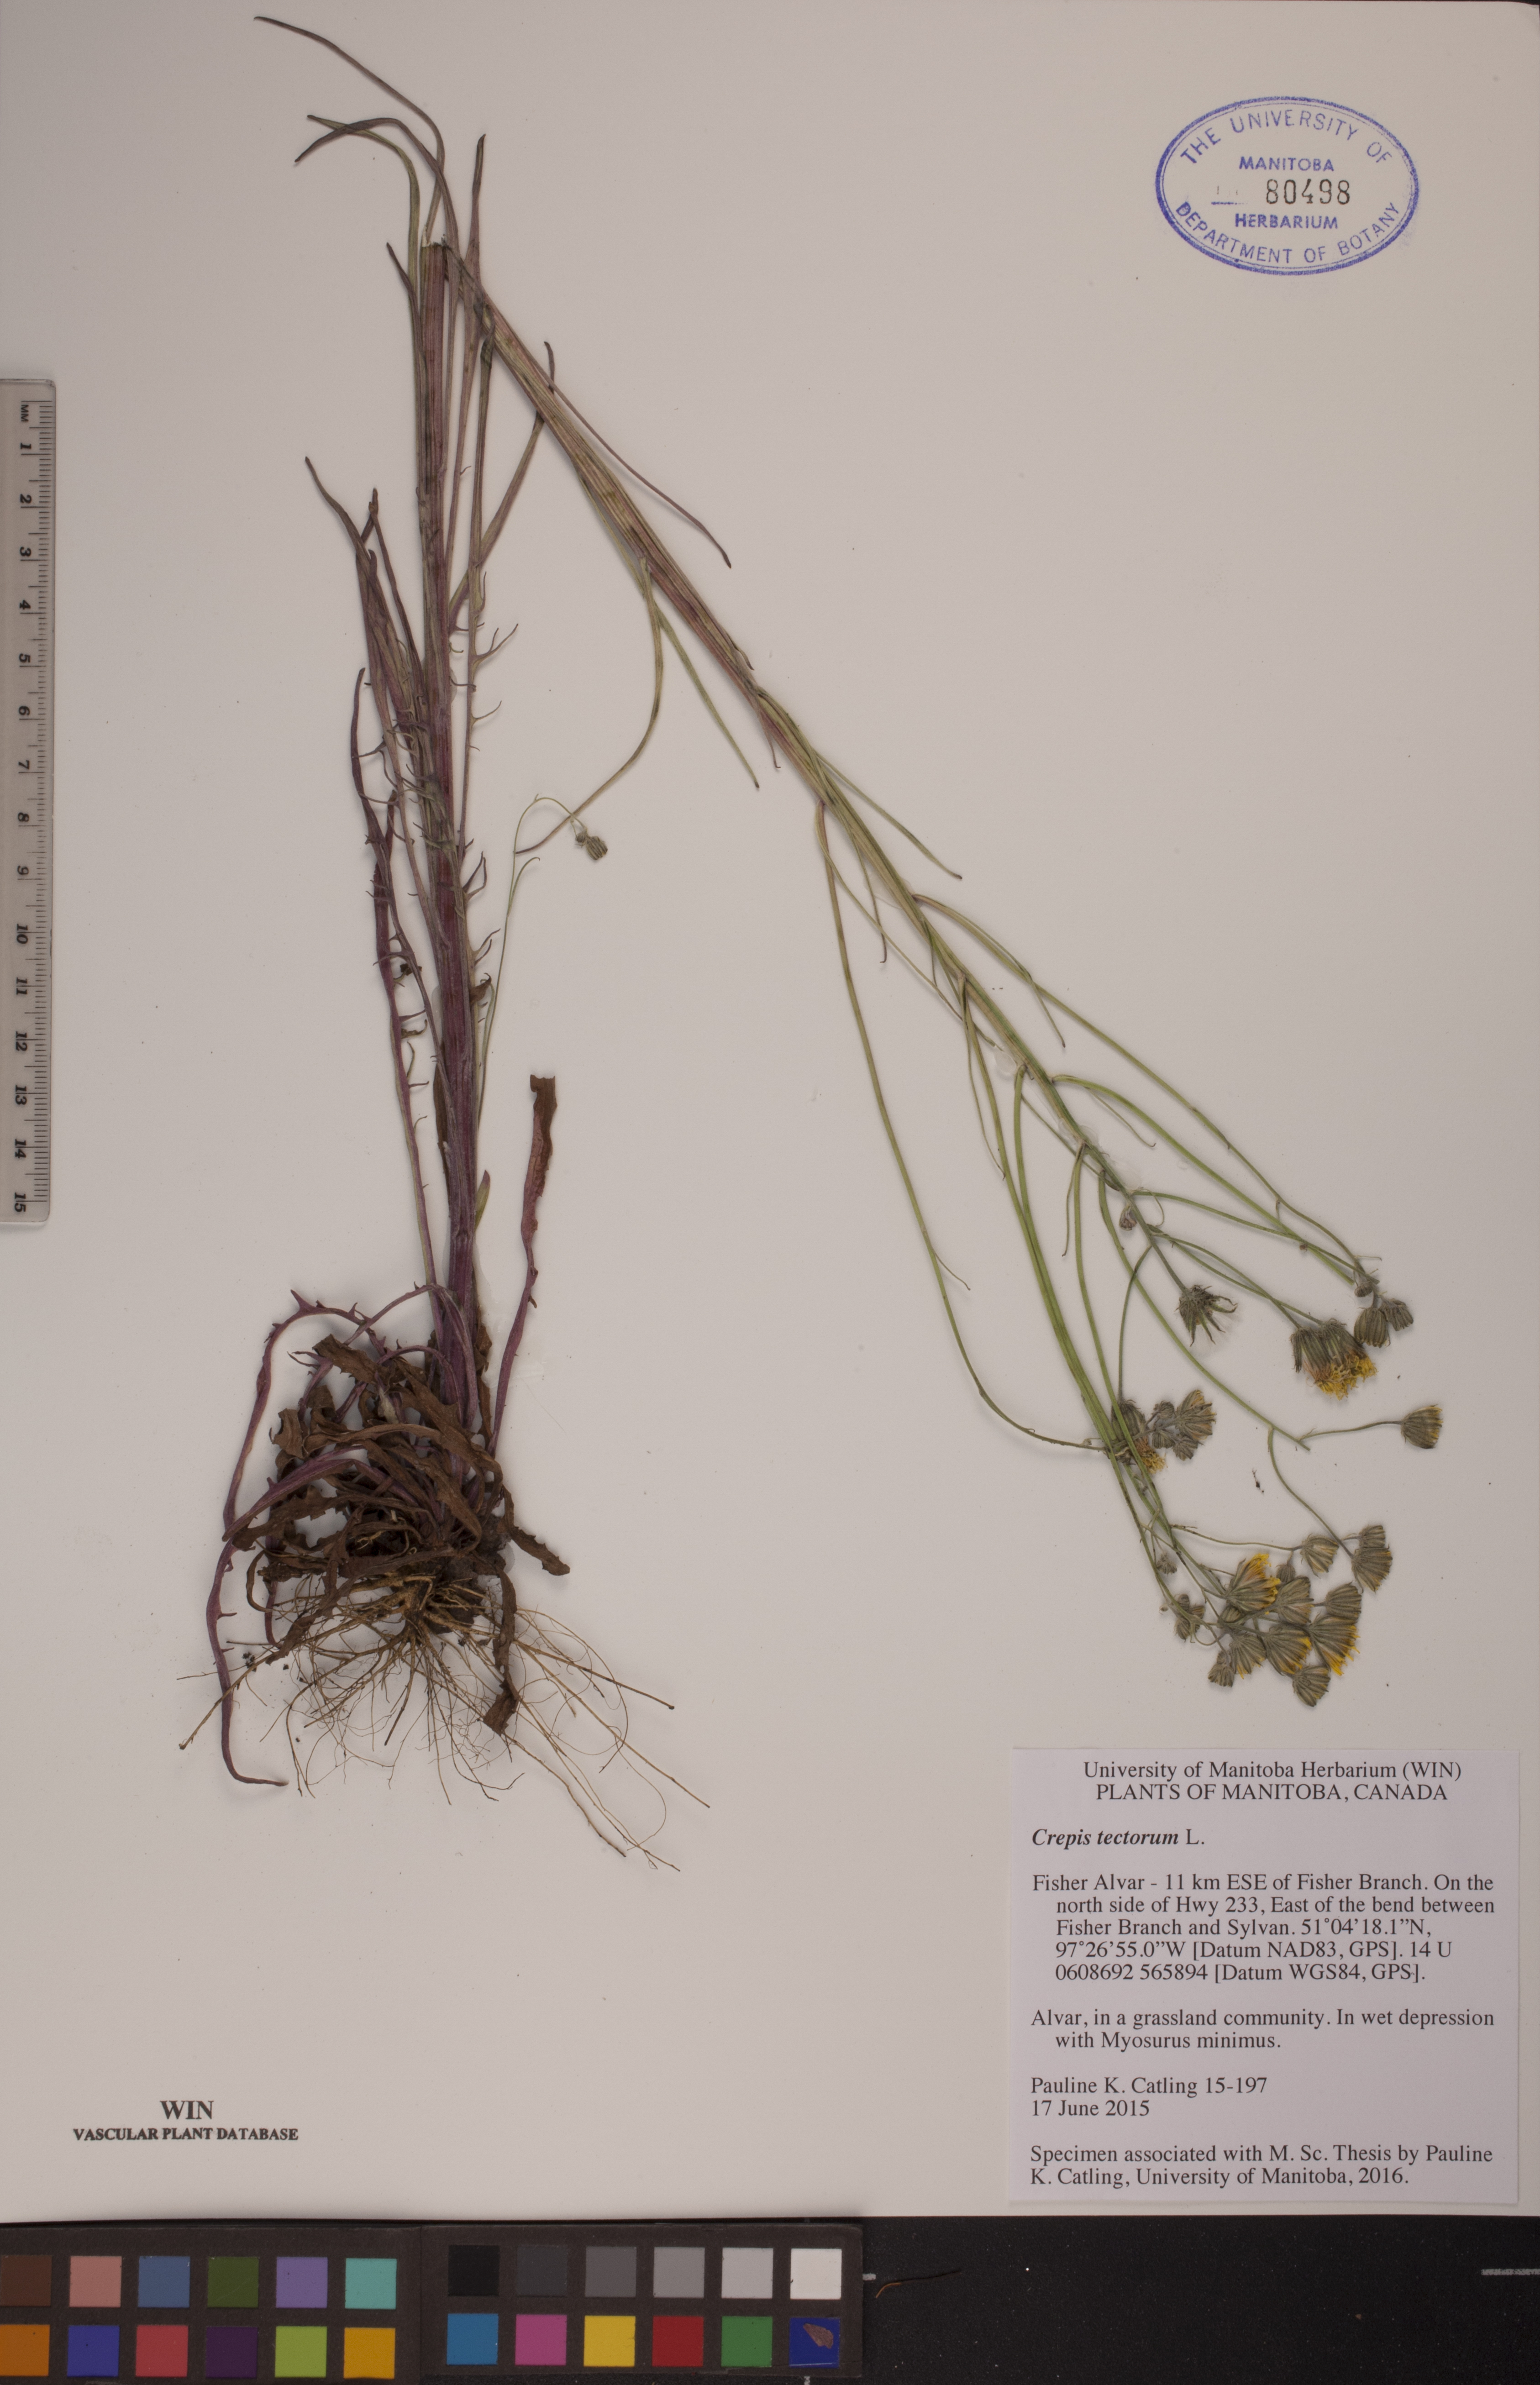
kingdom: Plantae
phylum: Tracheophyta
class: Magnoliopsida
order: Asterales
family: Asteraceae
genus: Crepis
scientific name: Crepis tectorum
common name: Narrow-leaved hawk's-beard
